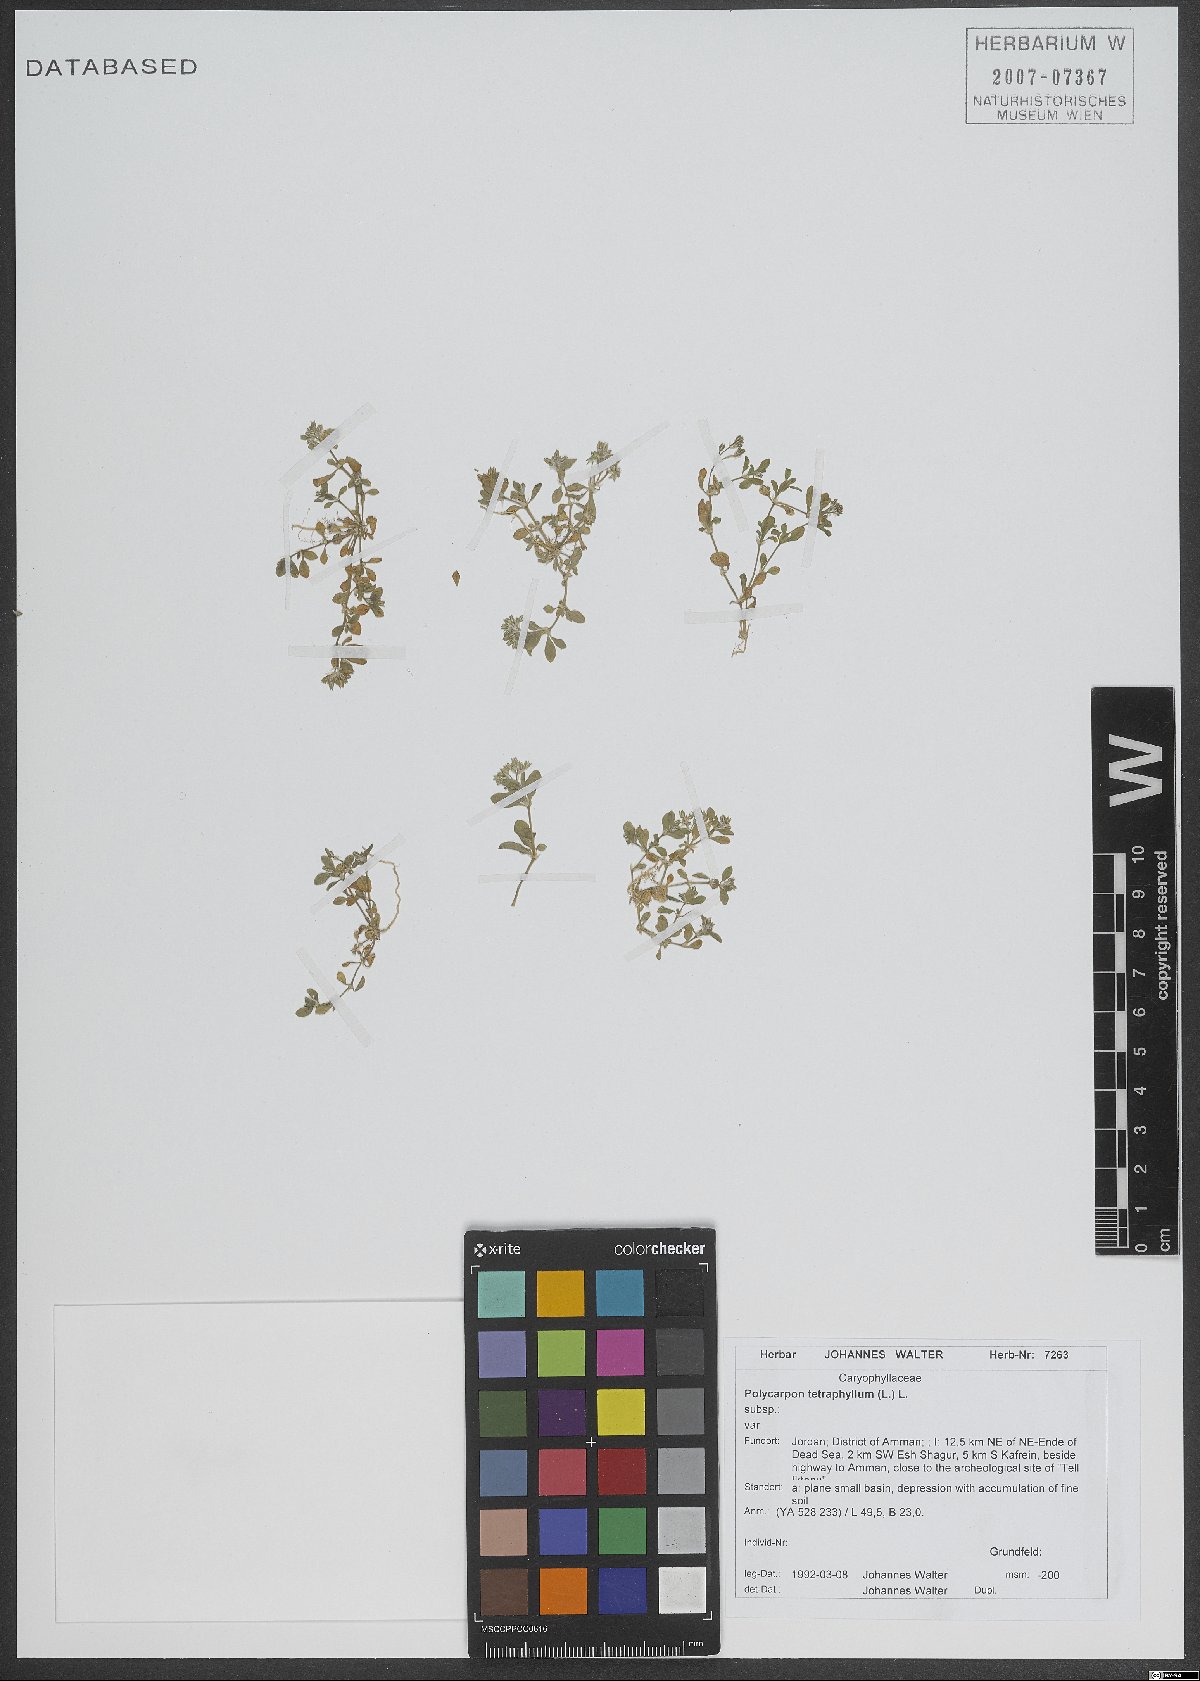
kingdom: Plantae
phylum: Tracheophyta
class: Magnoliopsida
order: Caryophyllales
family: Caryophyllaceae
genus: Polycarpon
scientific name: Polycarpon tetraphyllum
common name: Four-leaved all-seed
